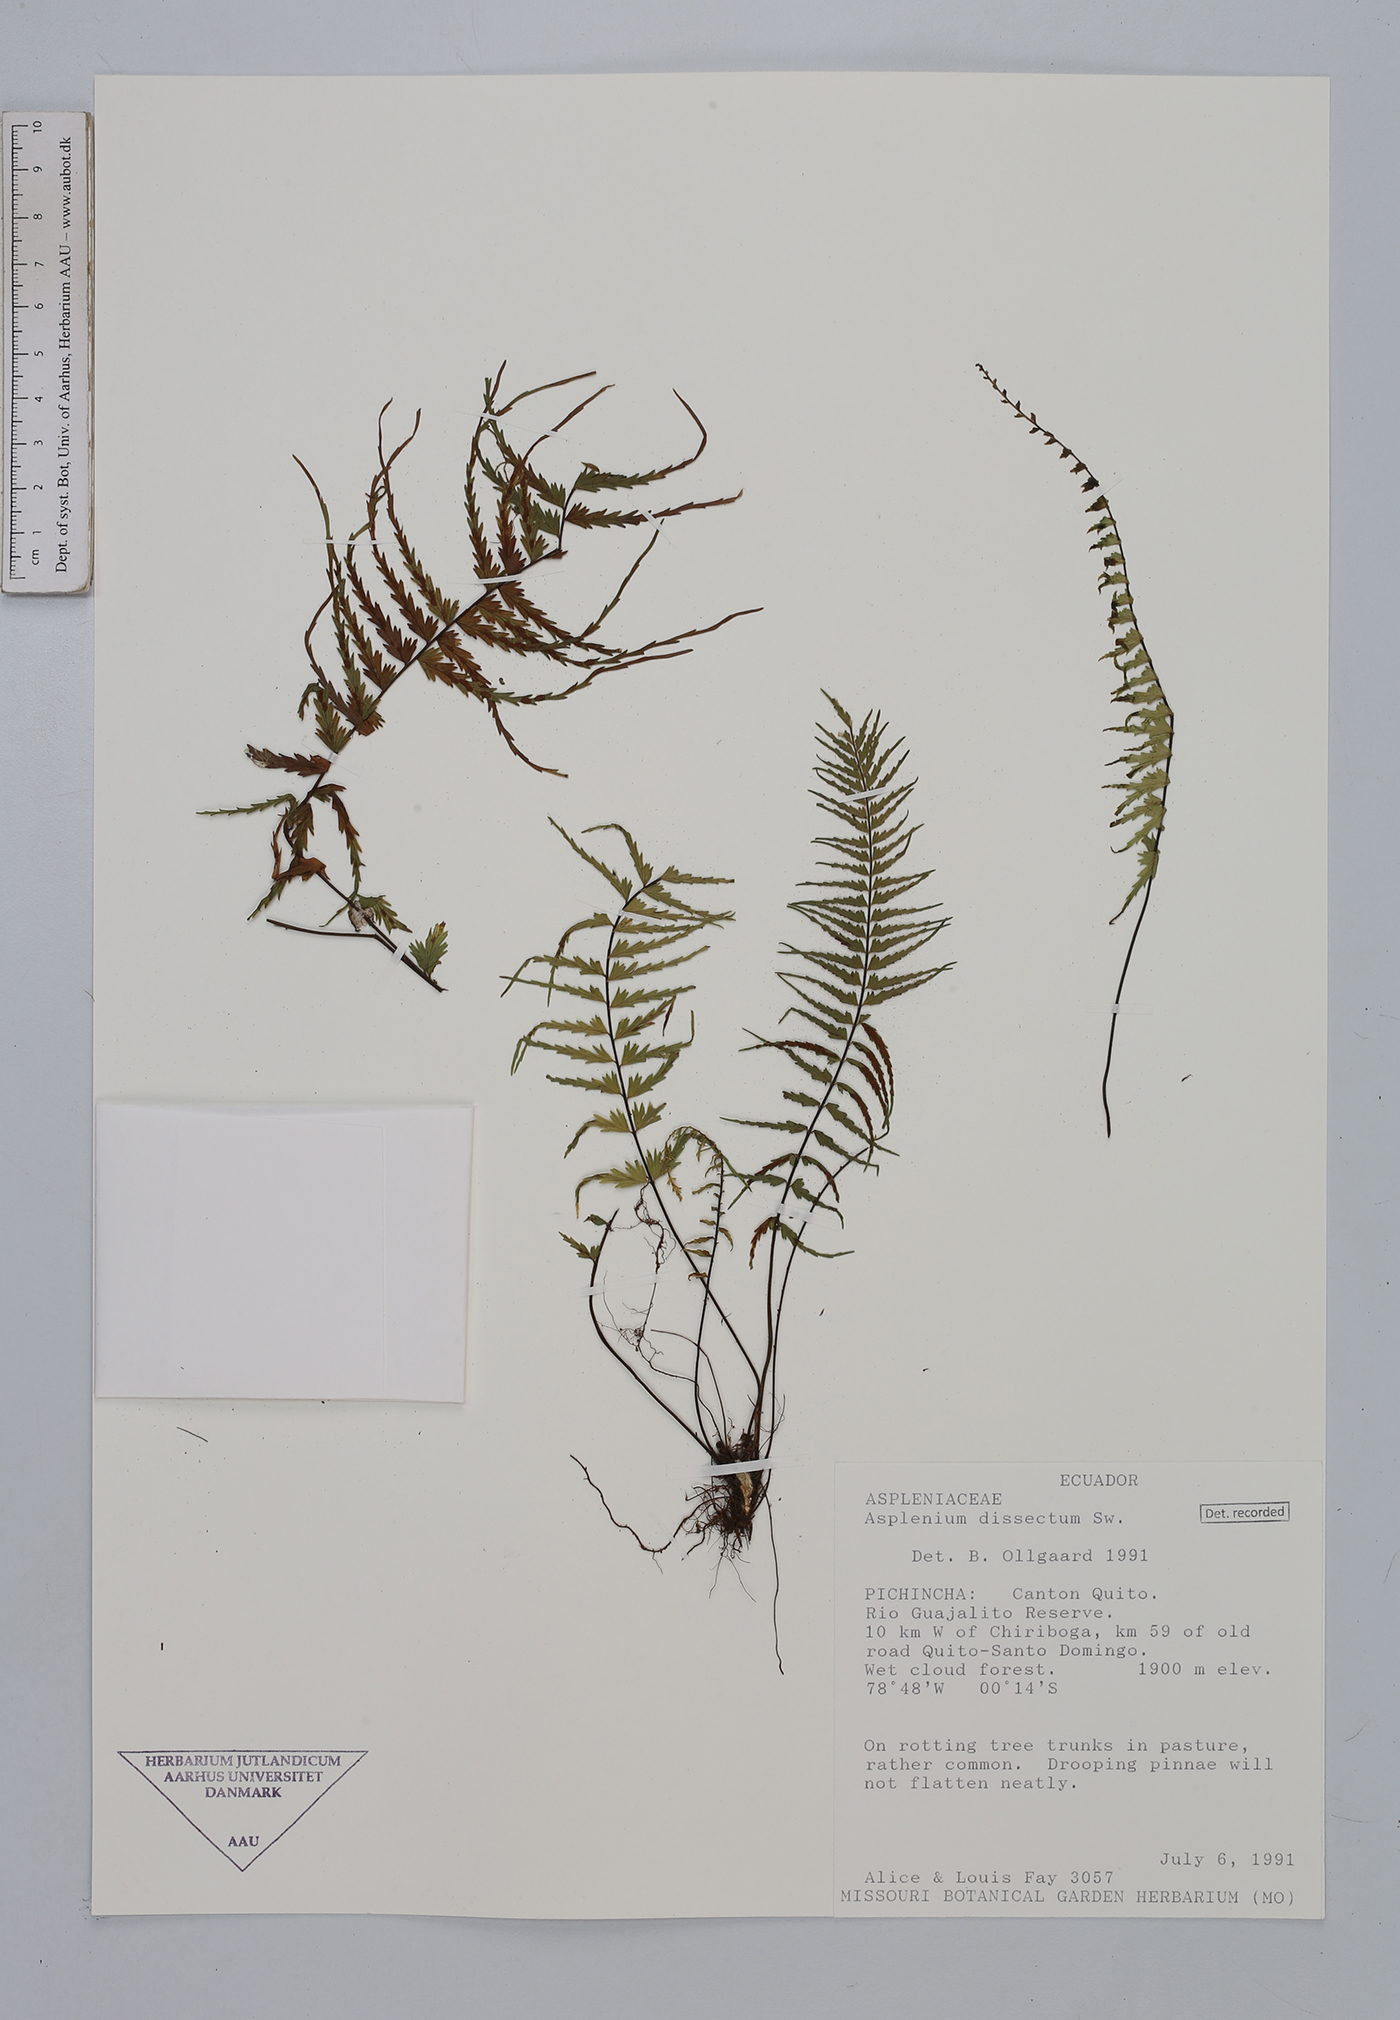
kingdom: Plantae
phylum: Tracheophyta
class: Polypodiopsida
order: Polypodiales
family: Aspleniaceae
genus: Asplenium
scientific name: Asplenium dissectum
